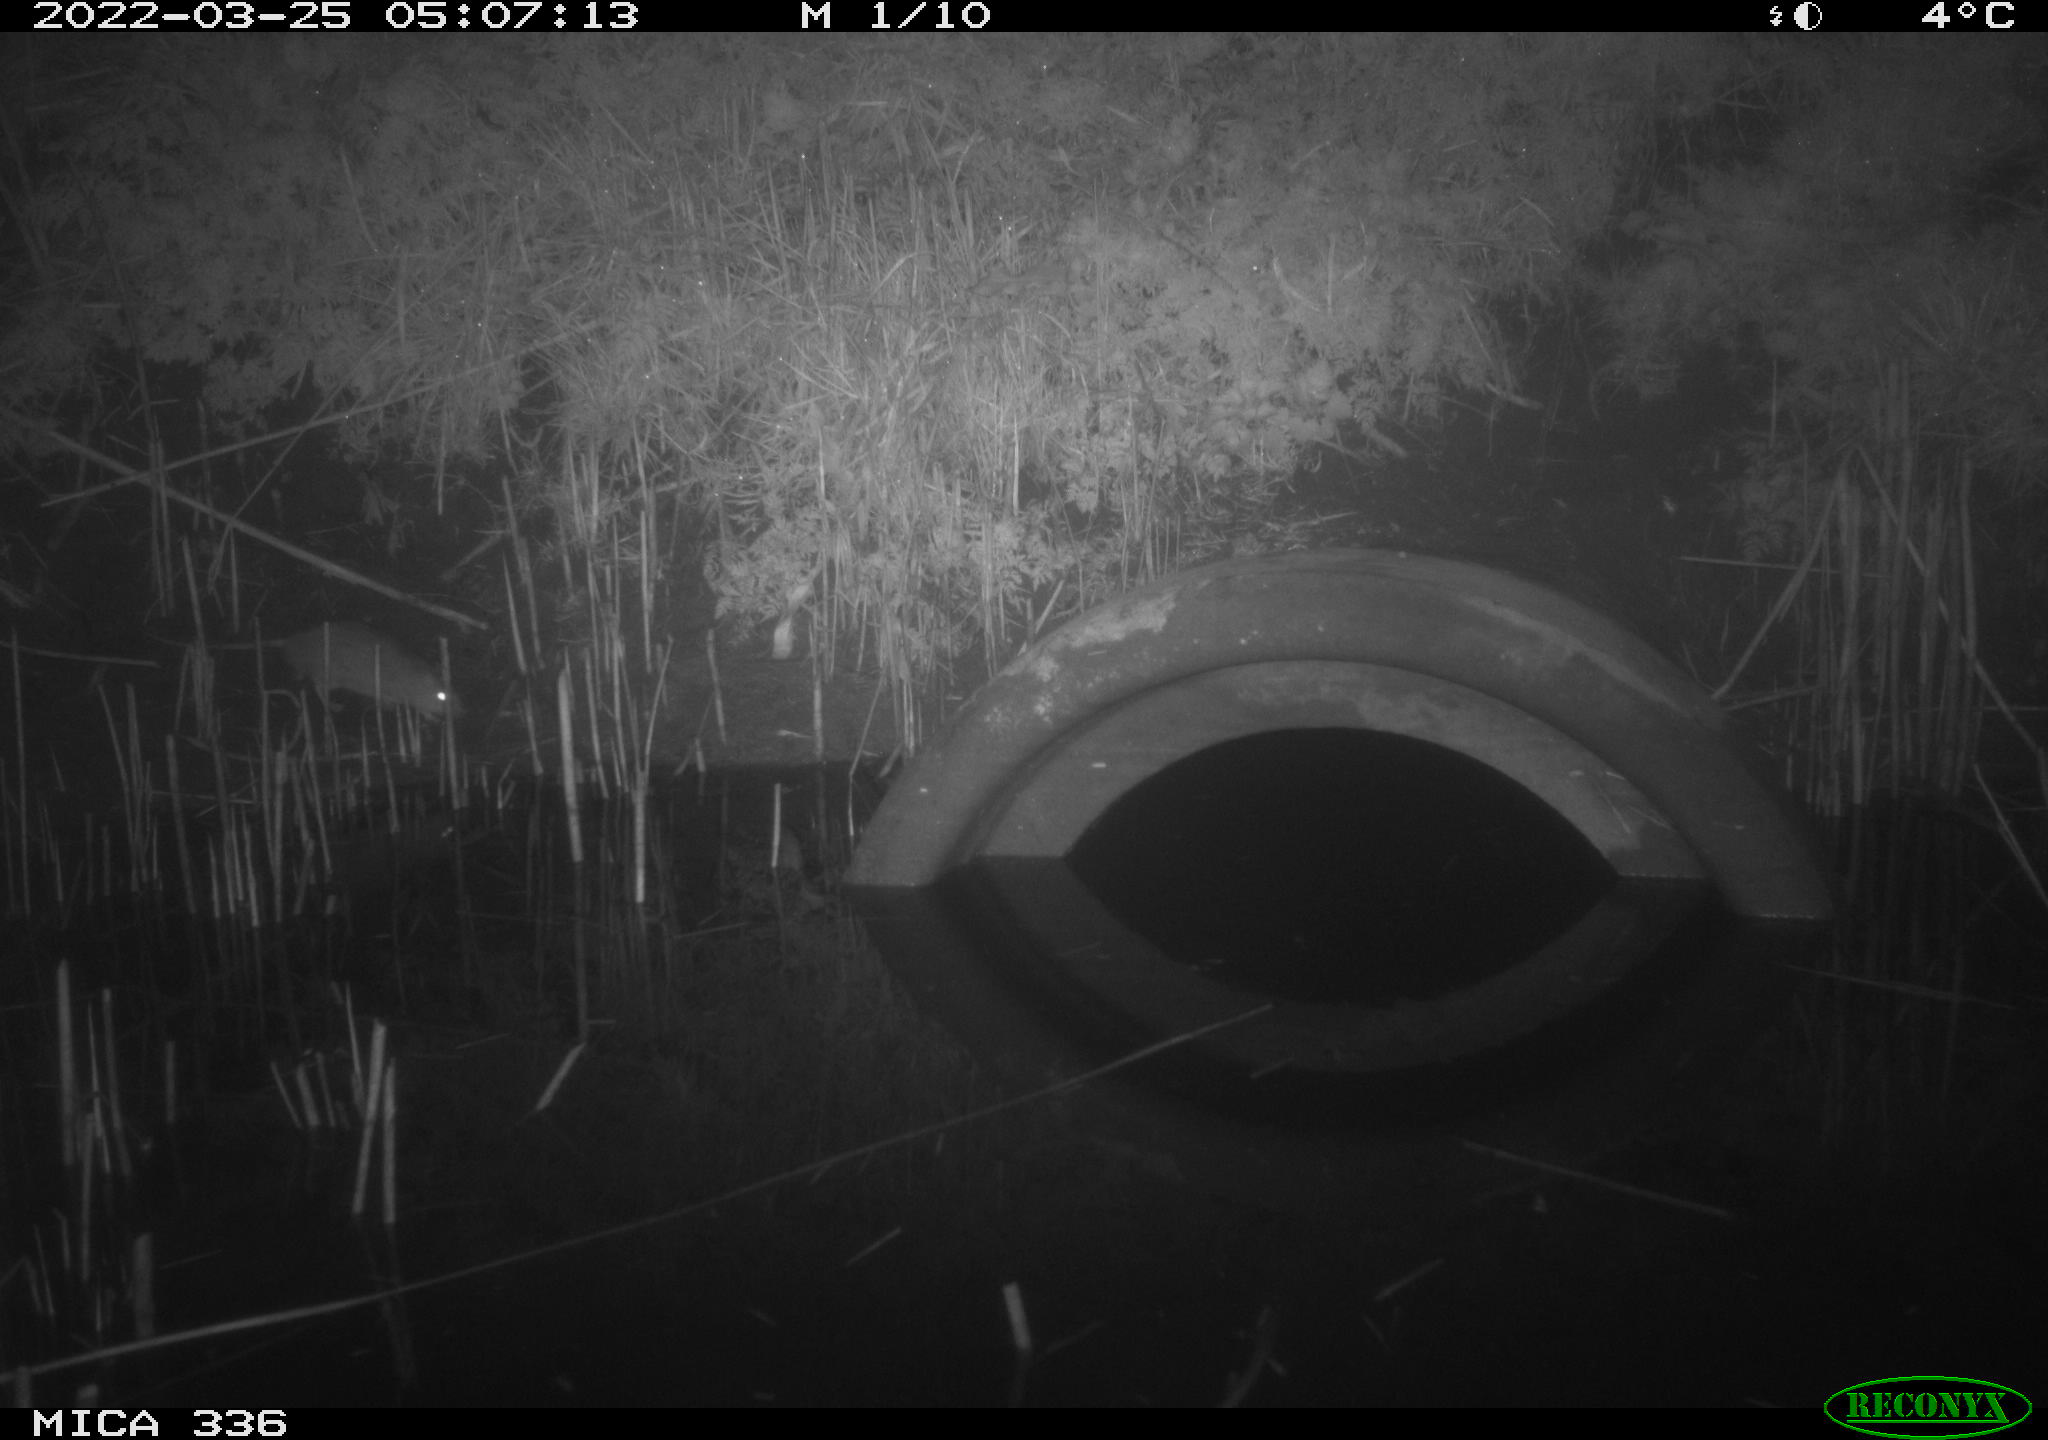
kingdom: Animalia
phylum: Chordata
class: Mammalia
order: Rodentia
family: Muridae
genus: Rattus
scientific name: Rattus norvegicus
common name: Brown rat
